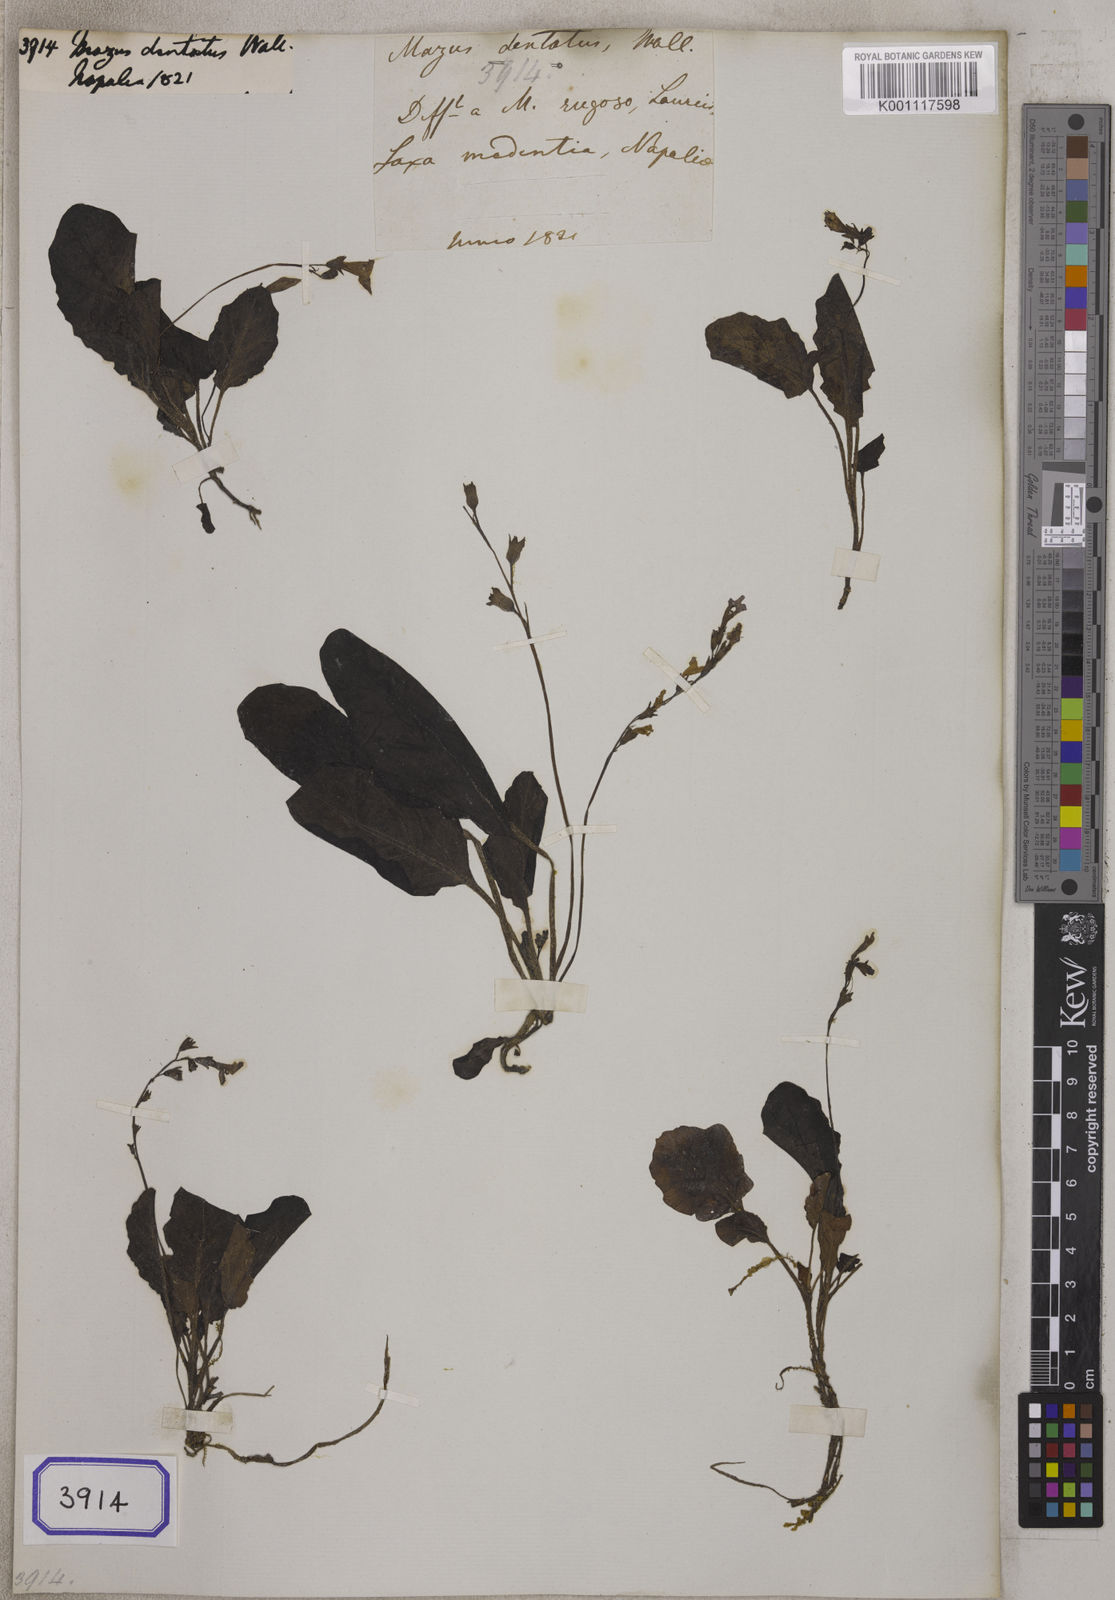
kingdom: Plantae
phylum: Tracheophyta
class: Magnoliopsida
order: Lamiales
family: Mazaceae
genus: Mazus
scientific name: Mazus
